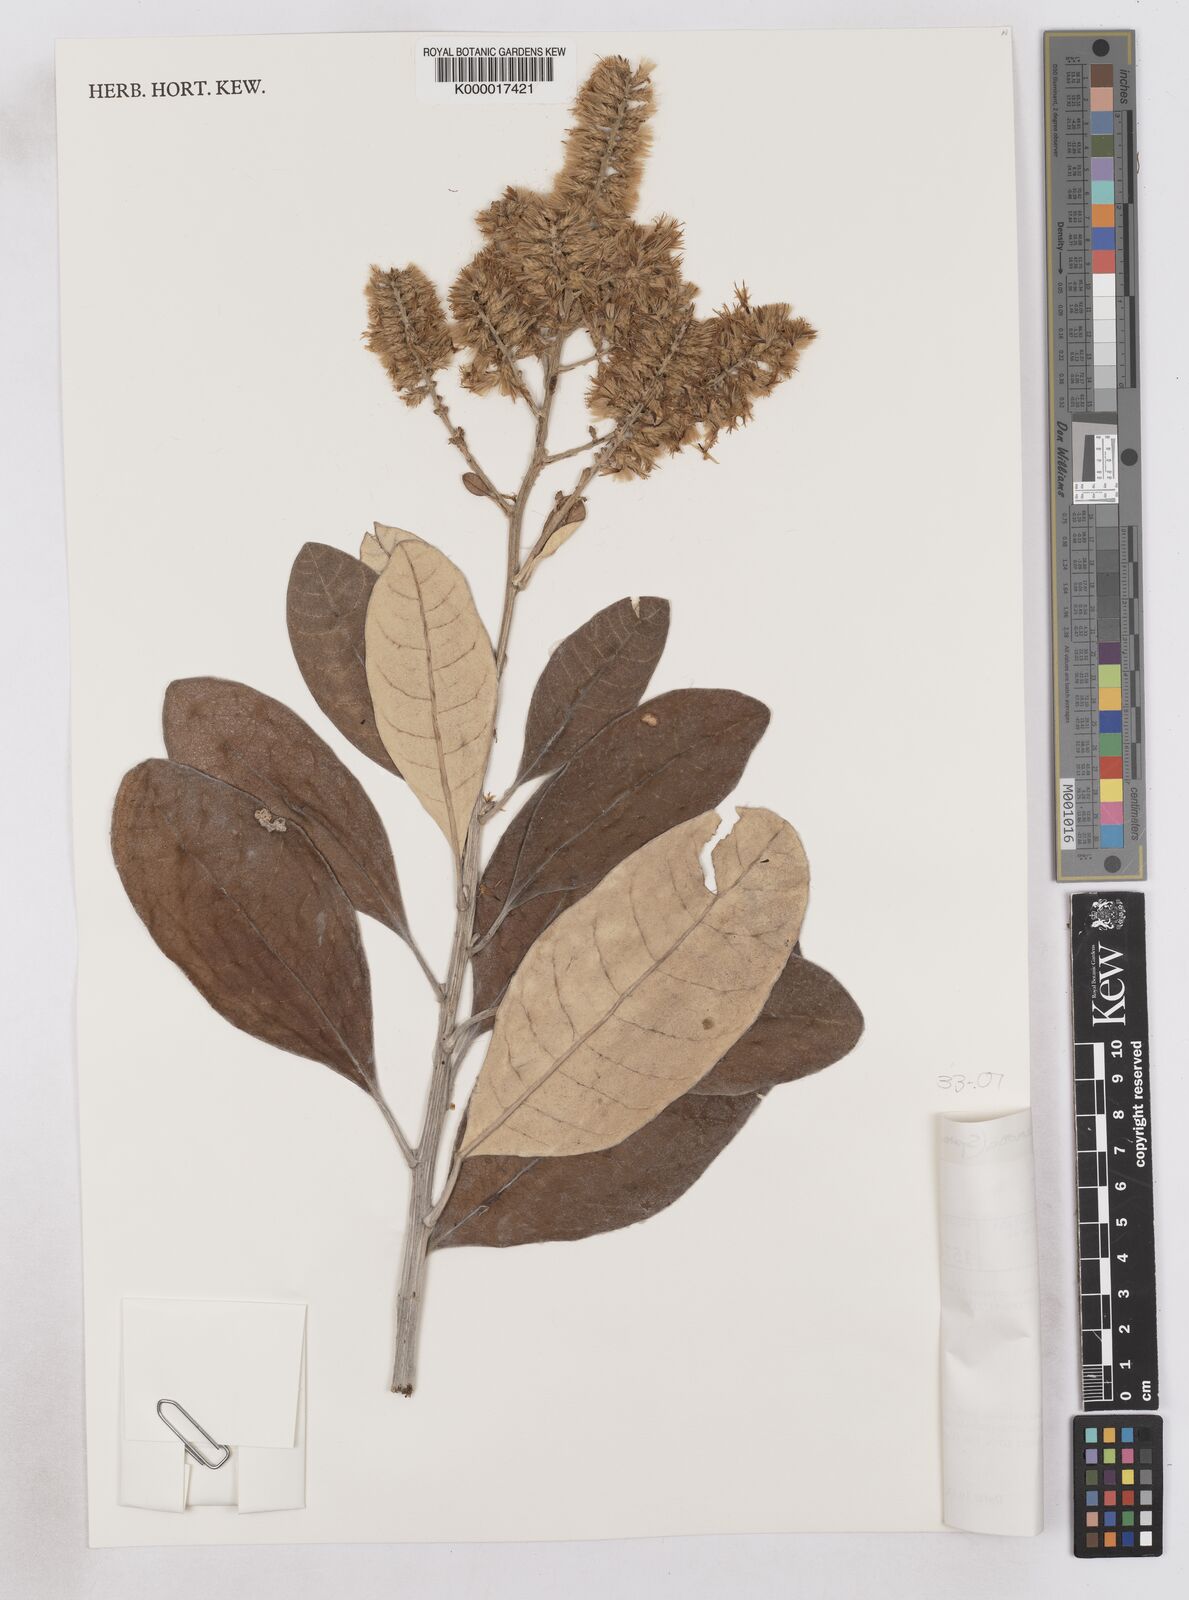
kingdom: Plantae
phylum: Tracheophyta
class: Magnoliopsida
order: Asterales
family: Asteraceae
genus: Moquinia
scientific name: Moquinia racemosa
